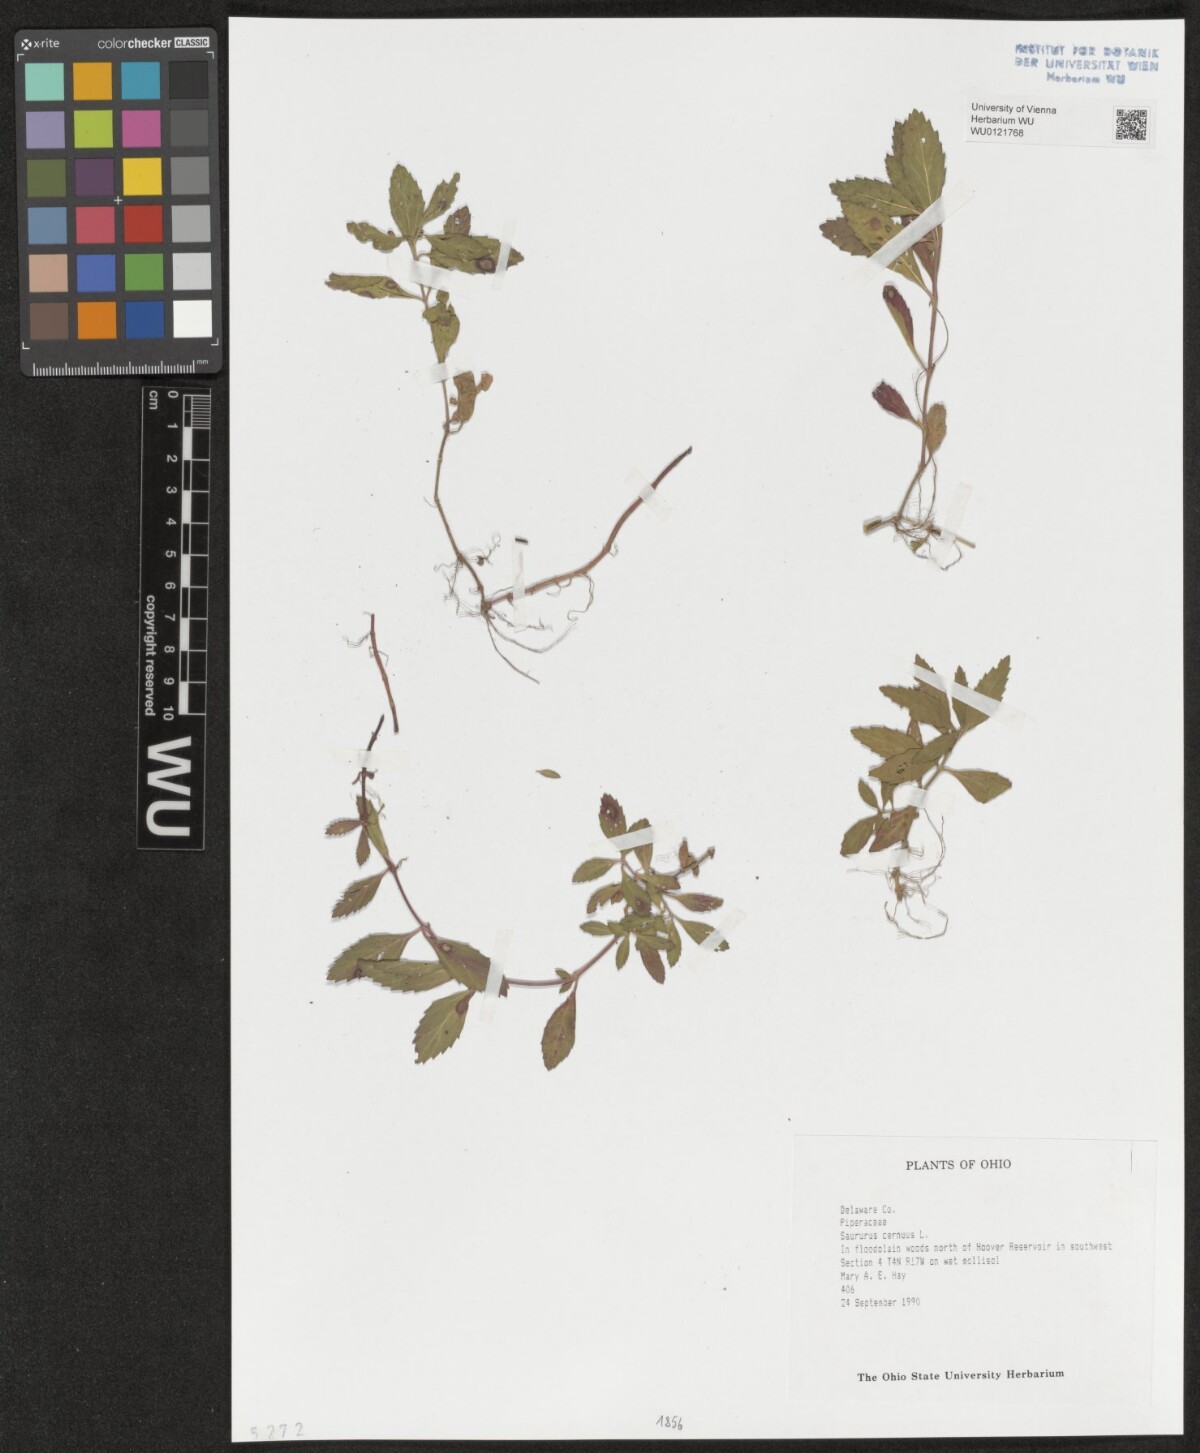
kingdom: Plantae
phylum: Tracheophyta
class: Magnoliopsida
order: Piperales
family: Saururaceae
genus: Saururus
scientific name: Saururus cernuus
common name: Lizard's-tail
